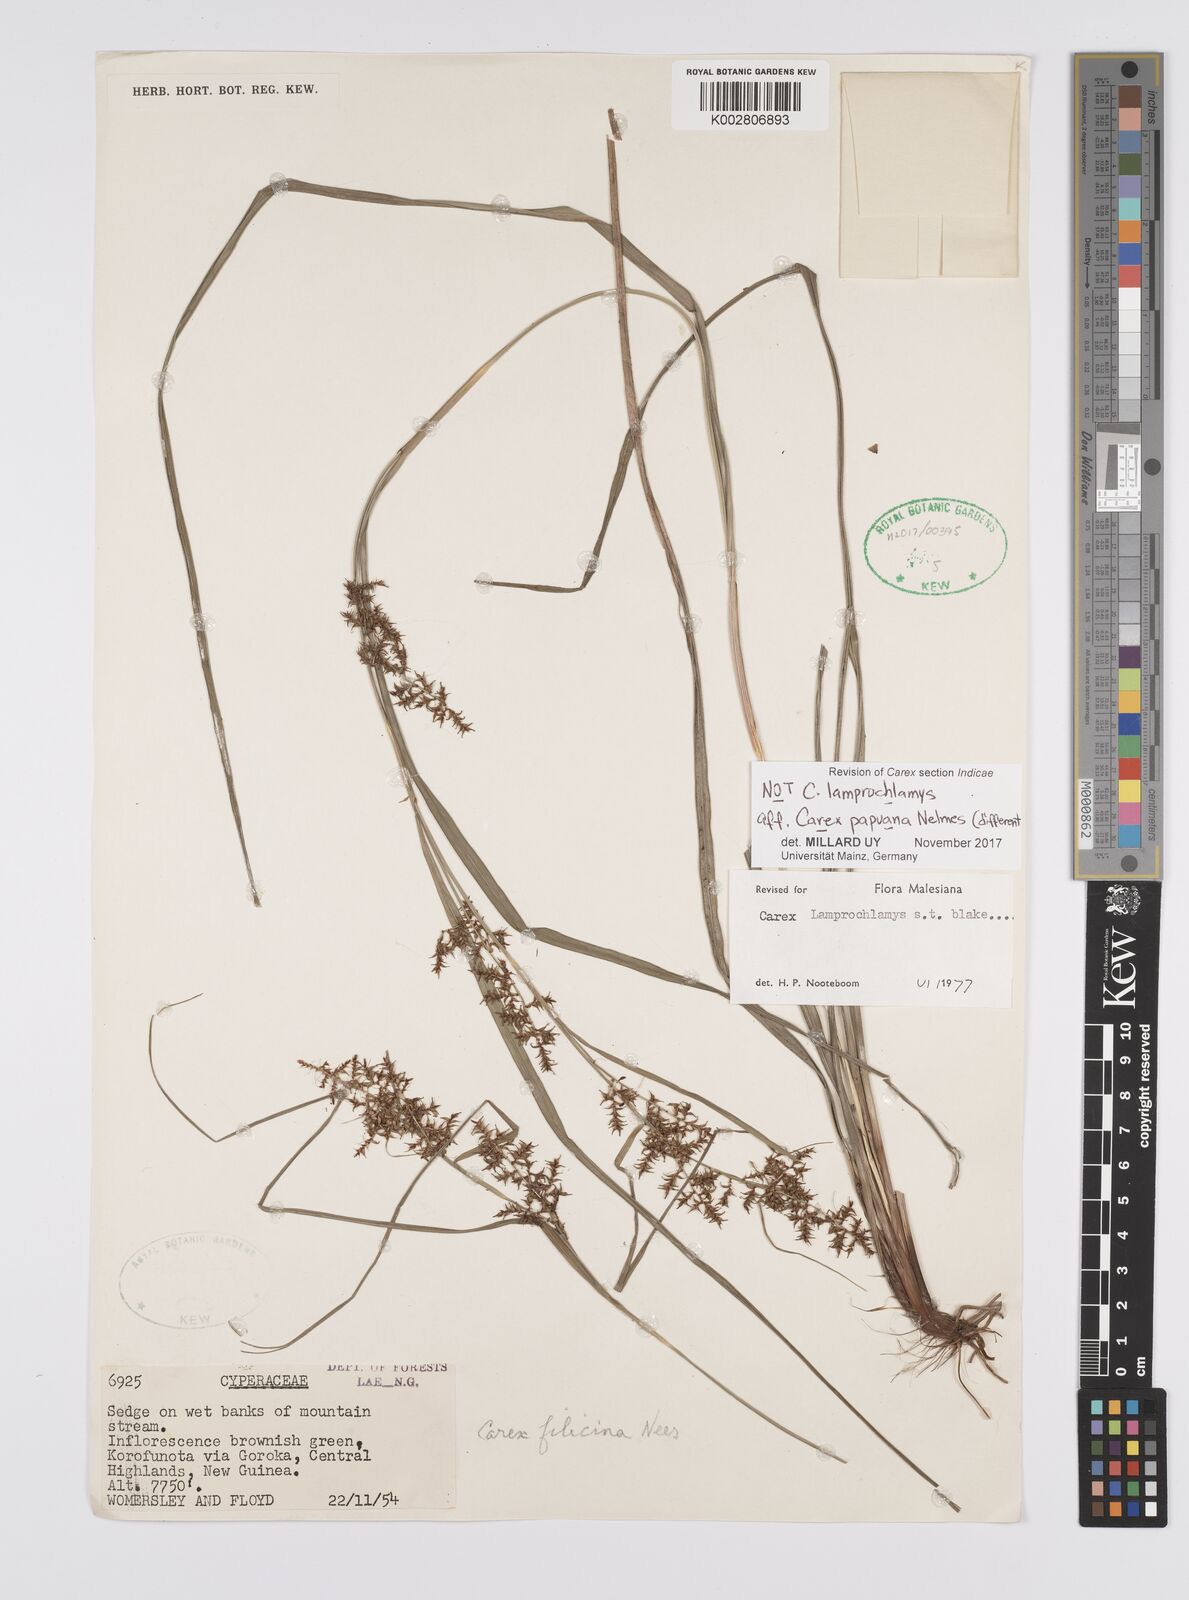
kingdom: Plantae
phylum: Tracheophyta
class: Liliopsida
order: Poales
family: Cyperaceae
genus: Carex
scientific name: Carex lamprochlamys
